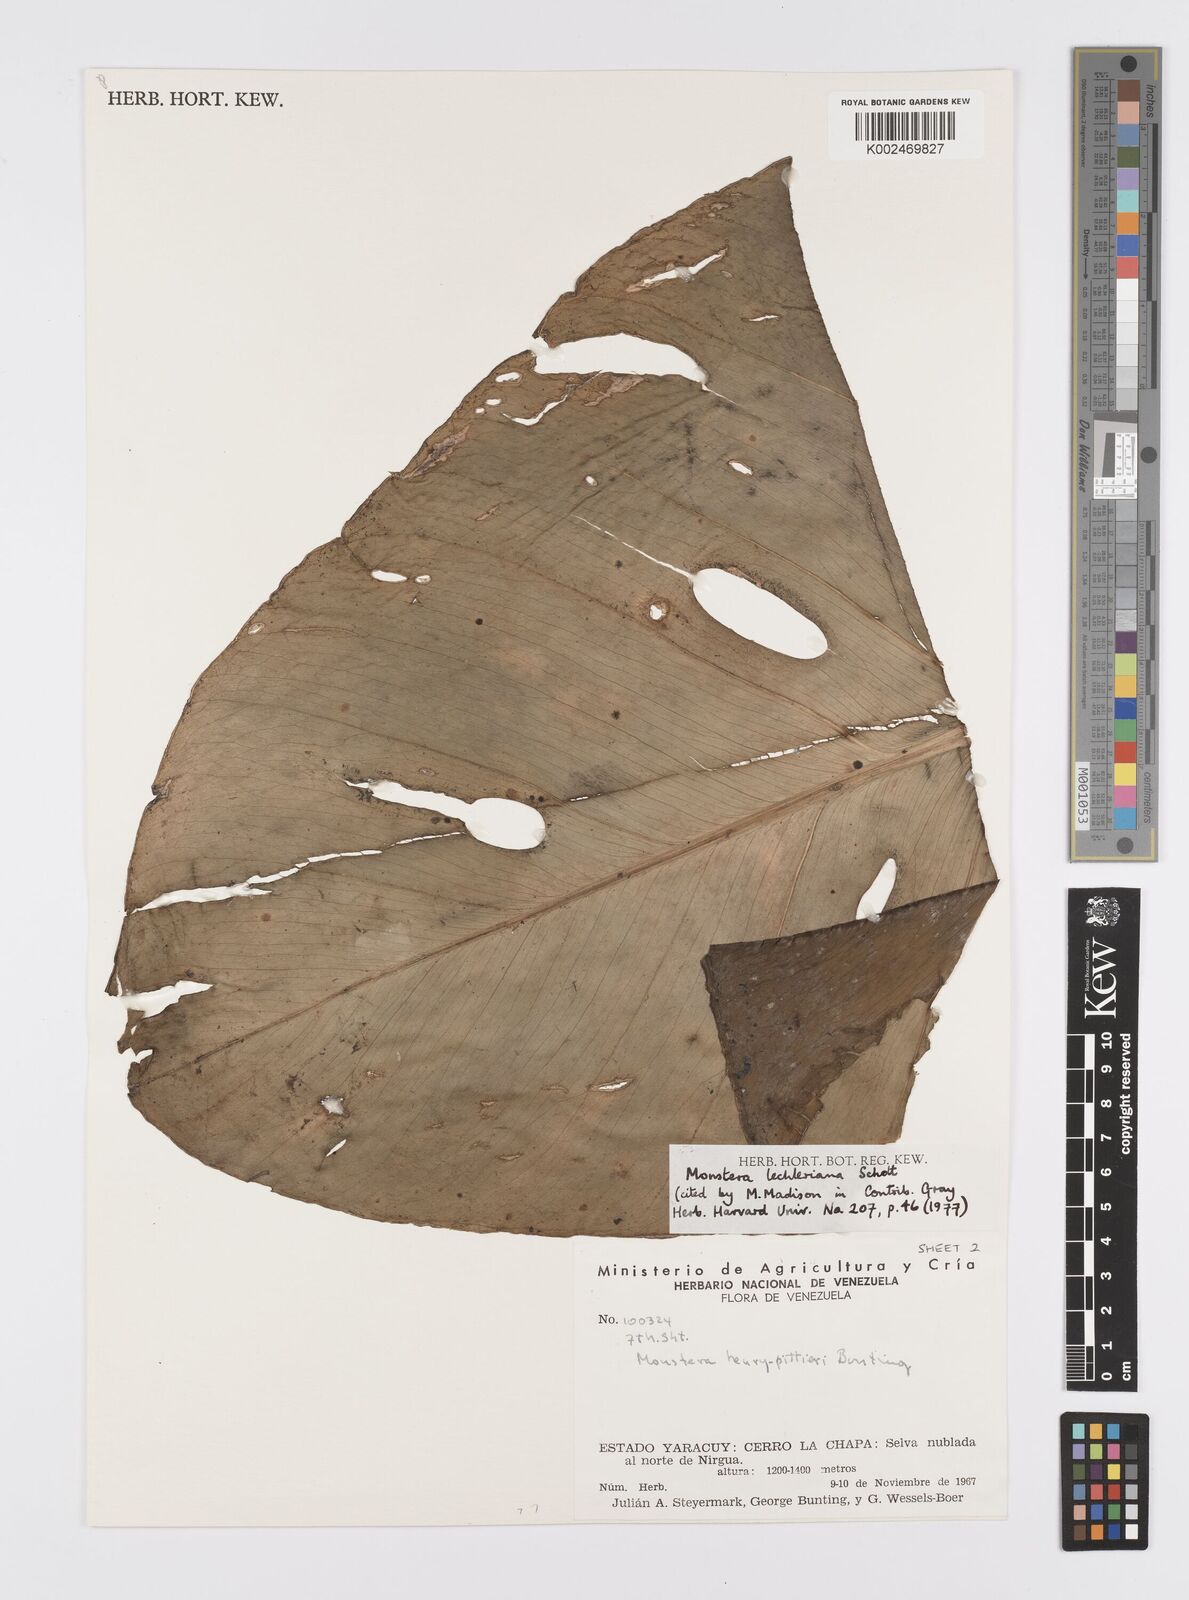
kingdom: Plantae
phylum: Tracheophyta
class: Liliopsida
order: Alismatales
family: Araceae
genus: Monstera
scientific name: Monstera lechleriana
